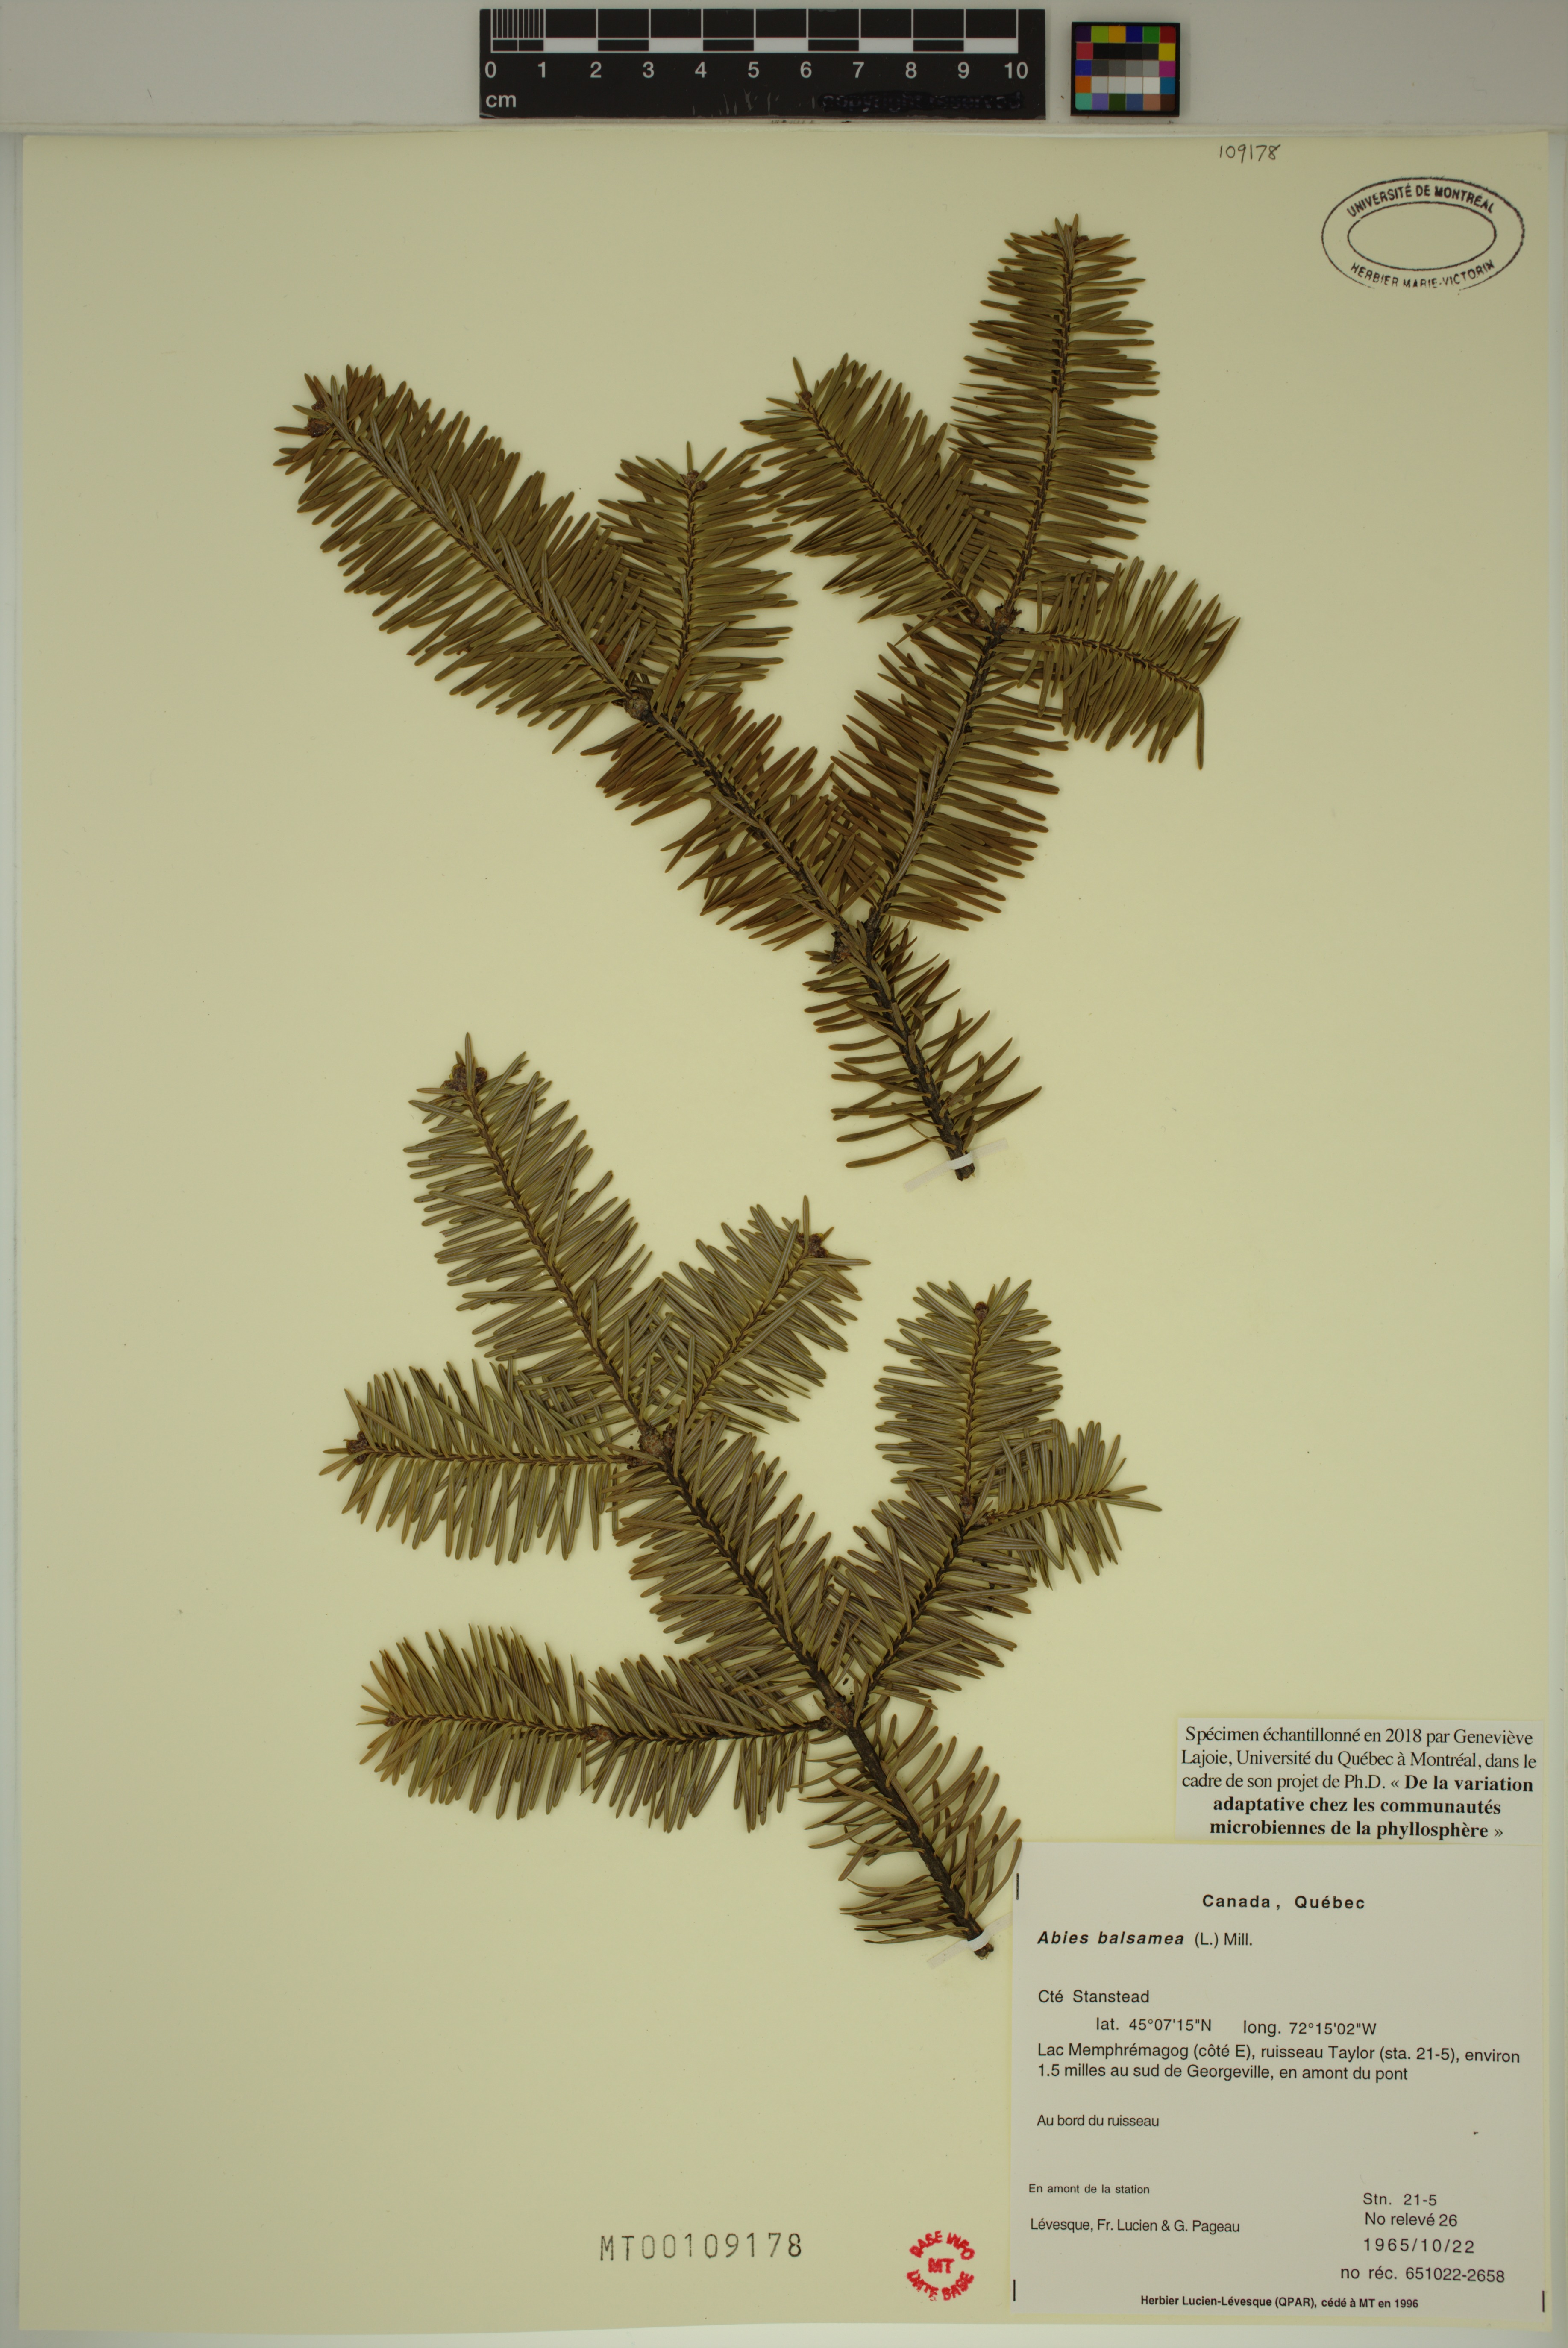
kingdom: Plantae
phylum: Tracheophyta
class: Pinopsida
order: Pinales
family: Pinaceae
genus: Abies
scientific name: Abies balsamea
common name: Balsam fir
